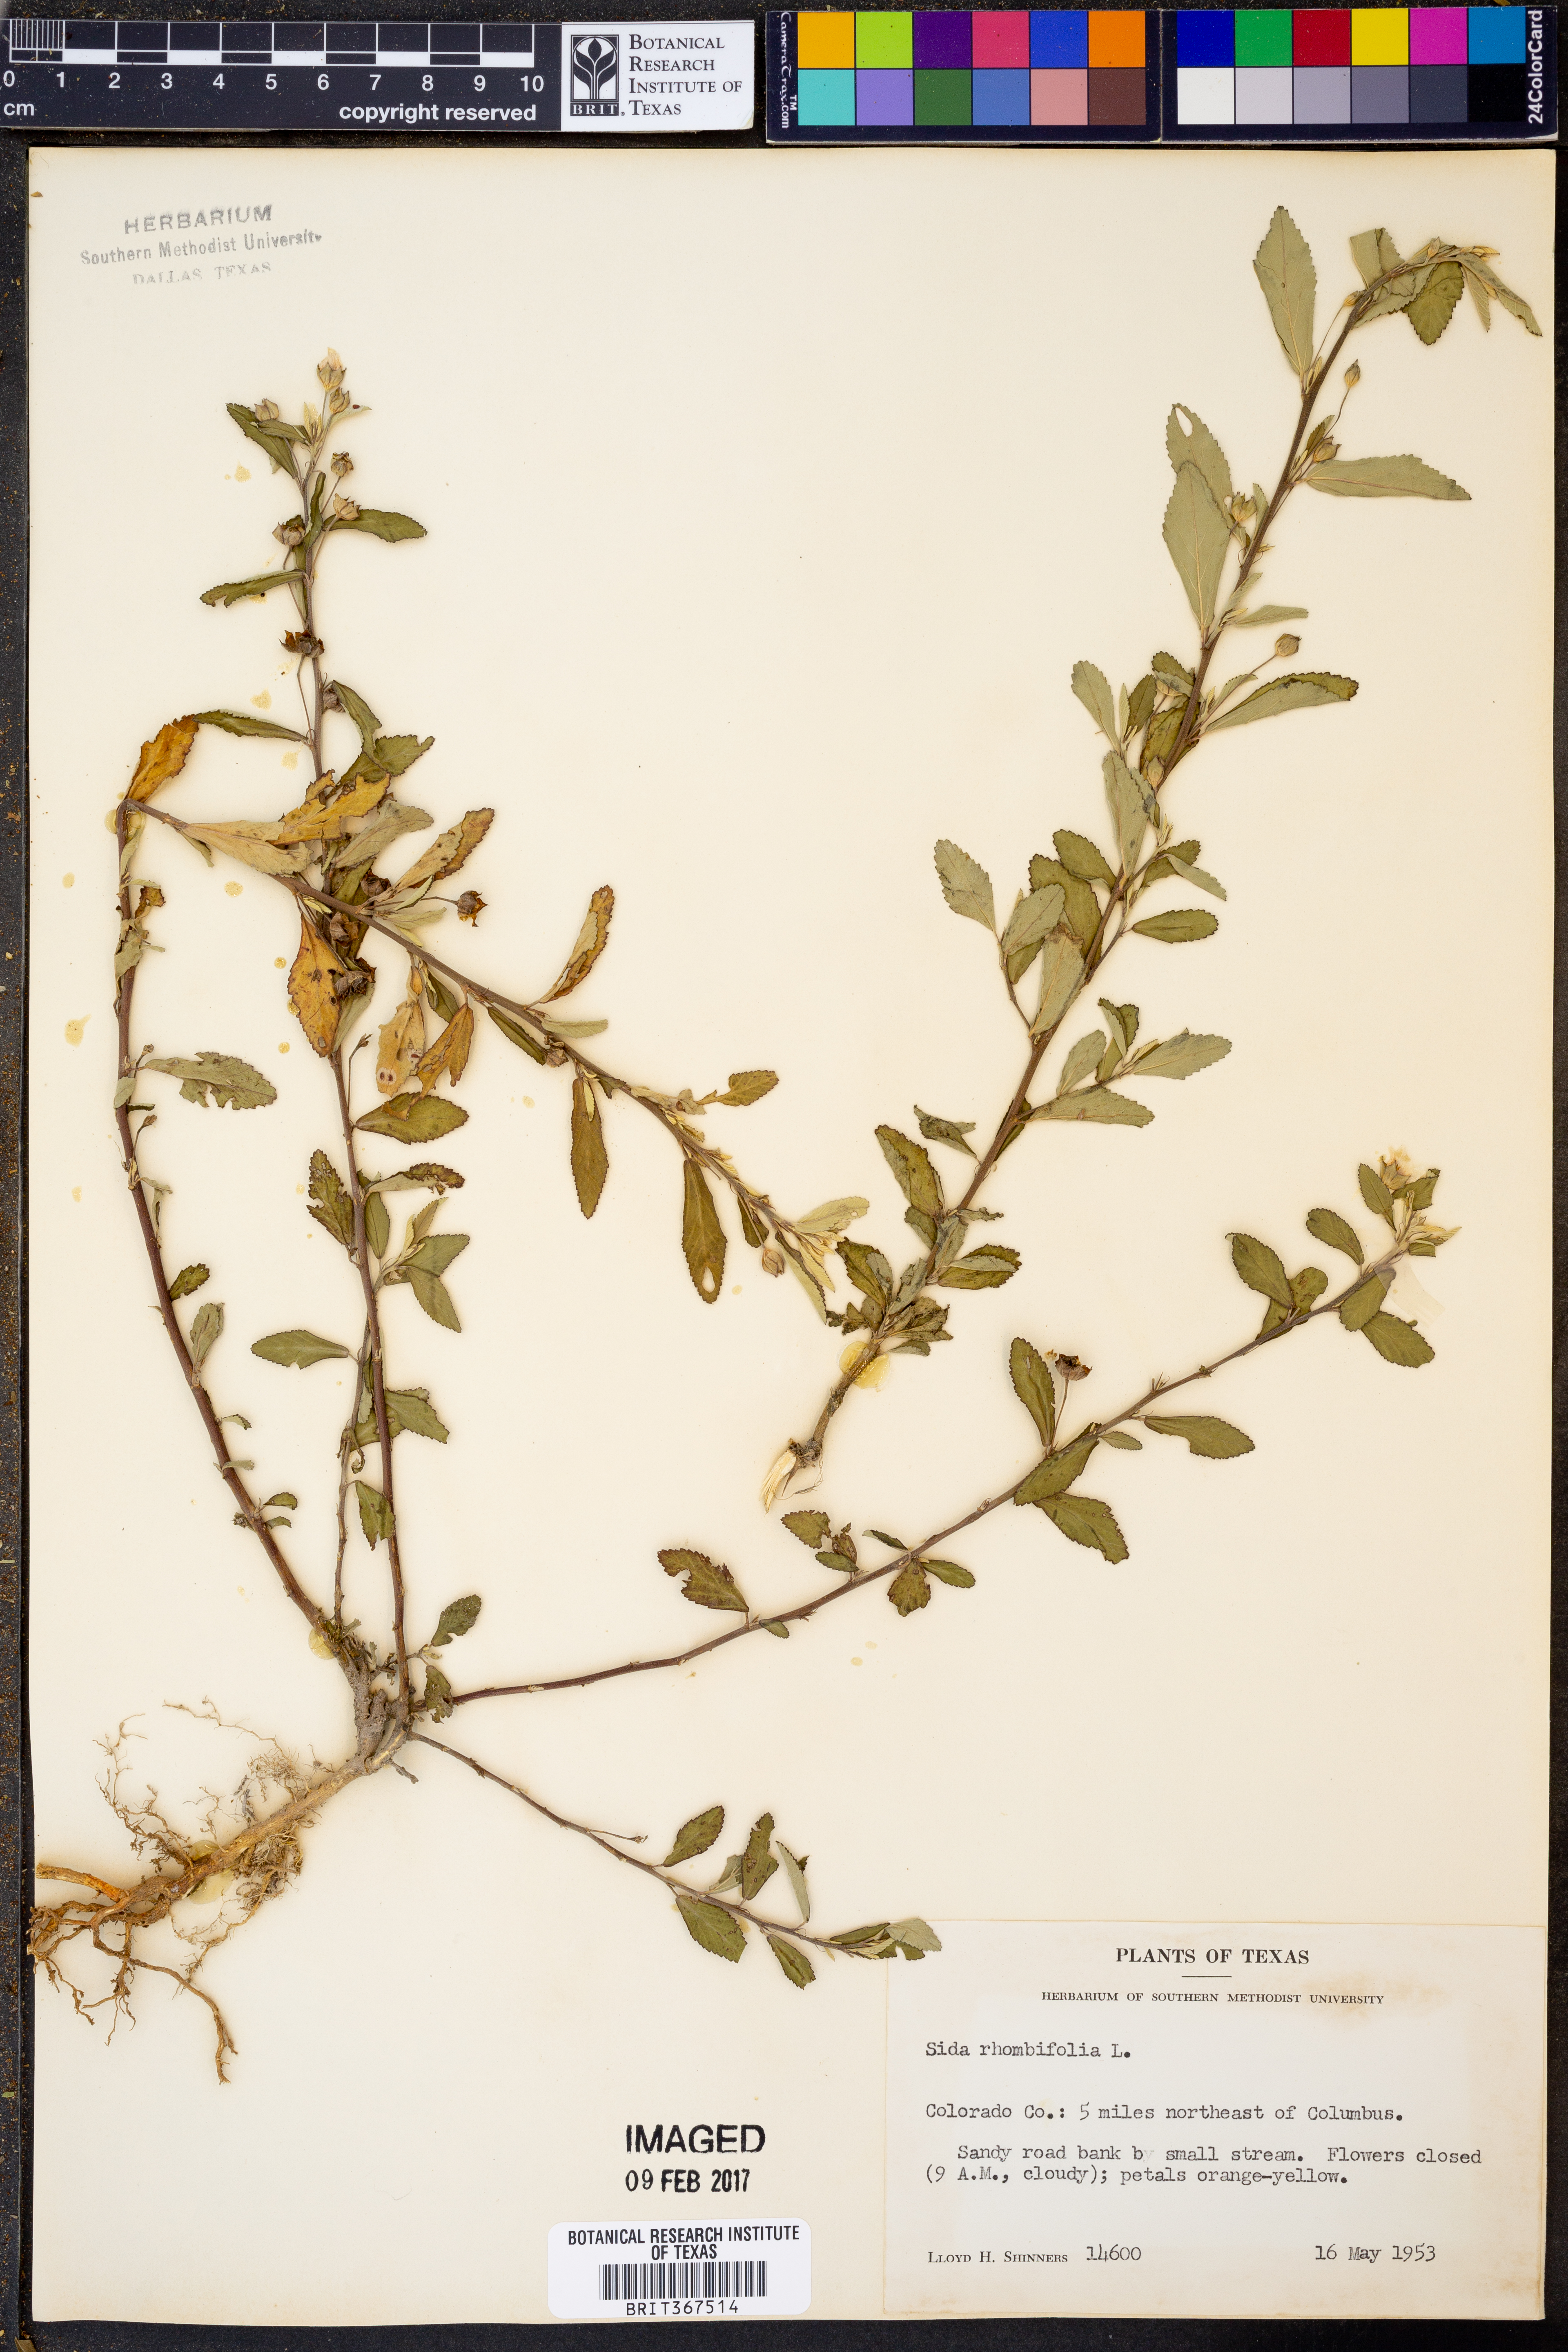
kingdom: Plantae
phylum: Tracheophyta
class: Magnoliopsida
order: Malvales
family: Malvaceae
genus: Sida
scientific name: Sida rhombifolia
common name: Queensland-hemp
